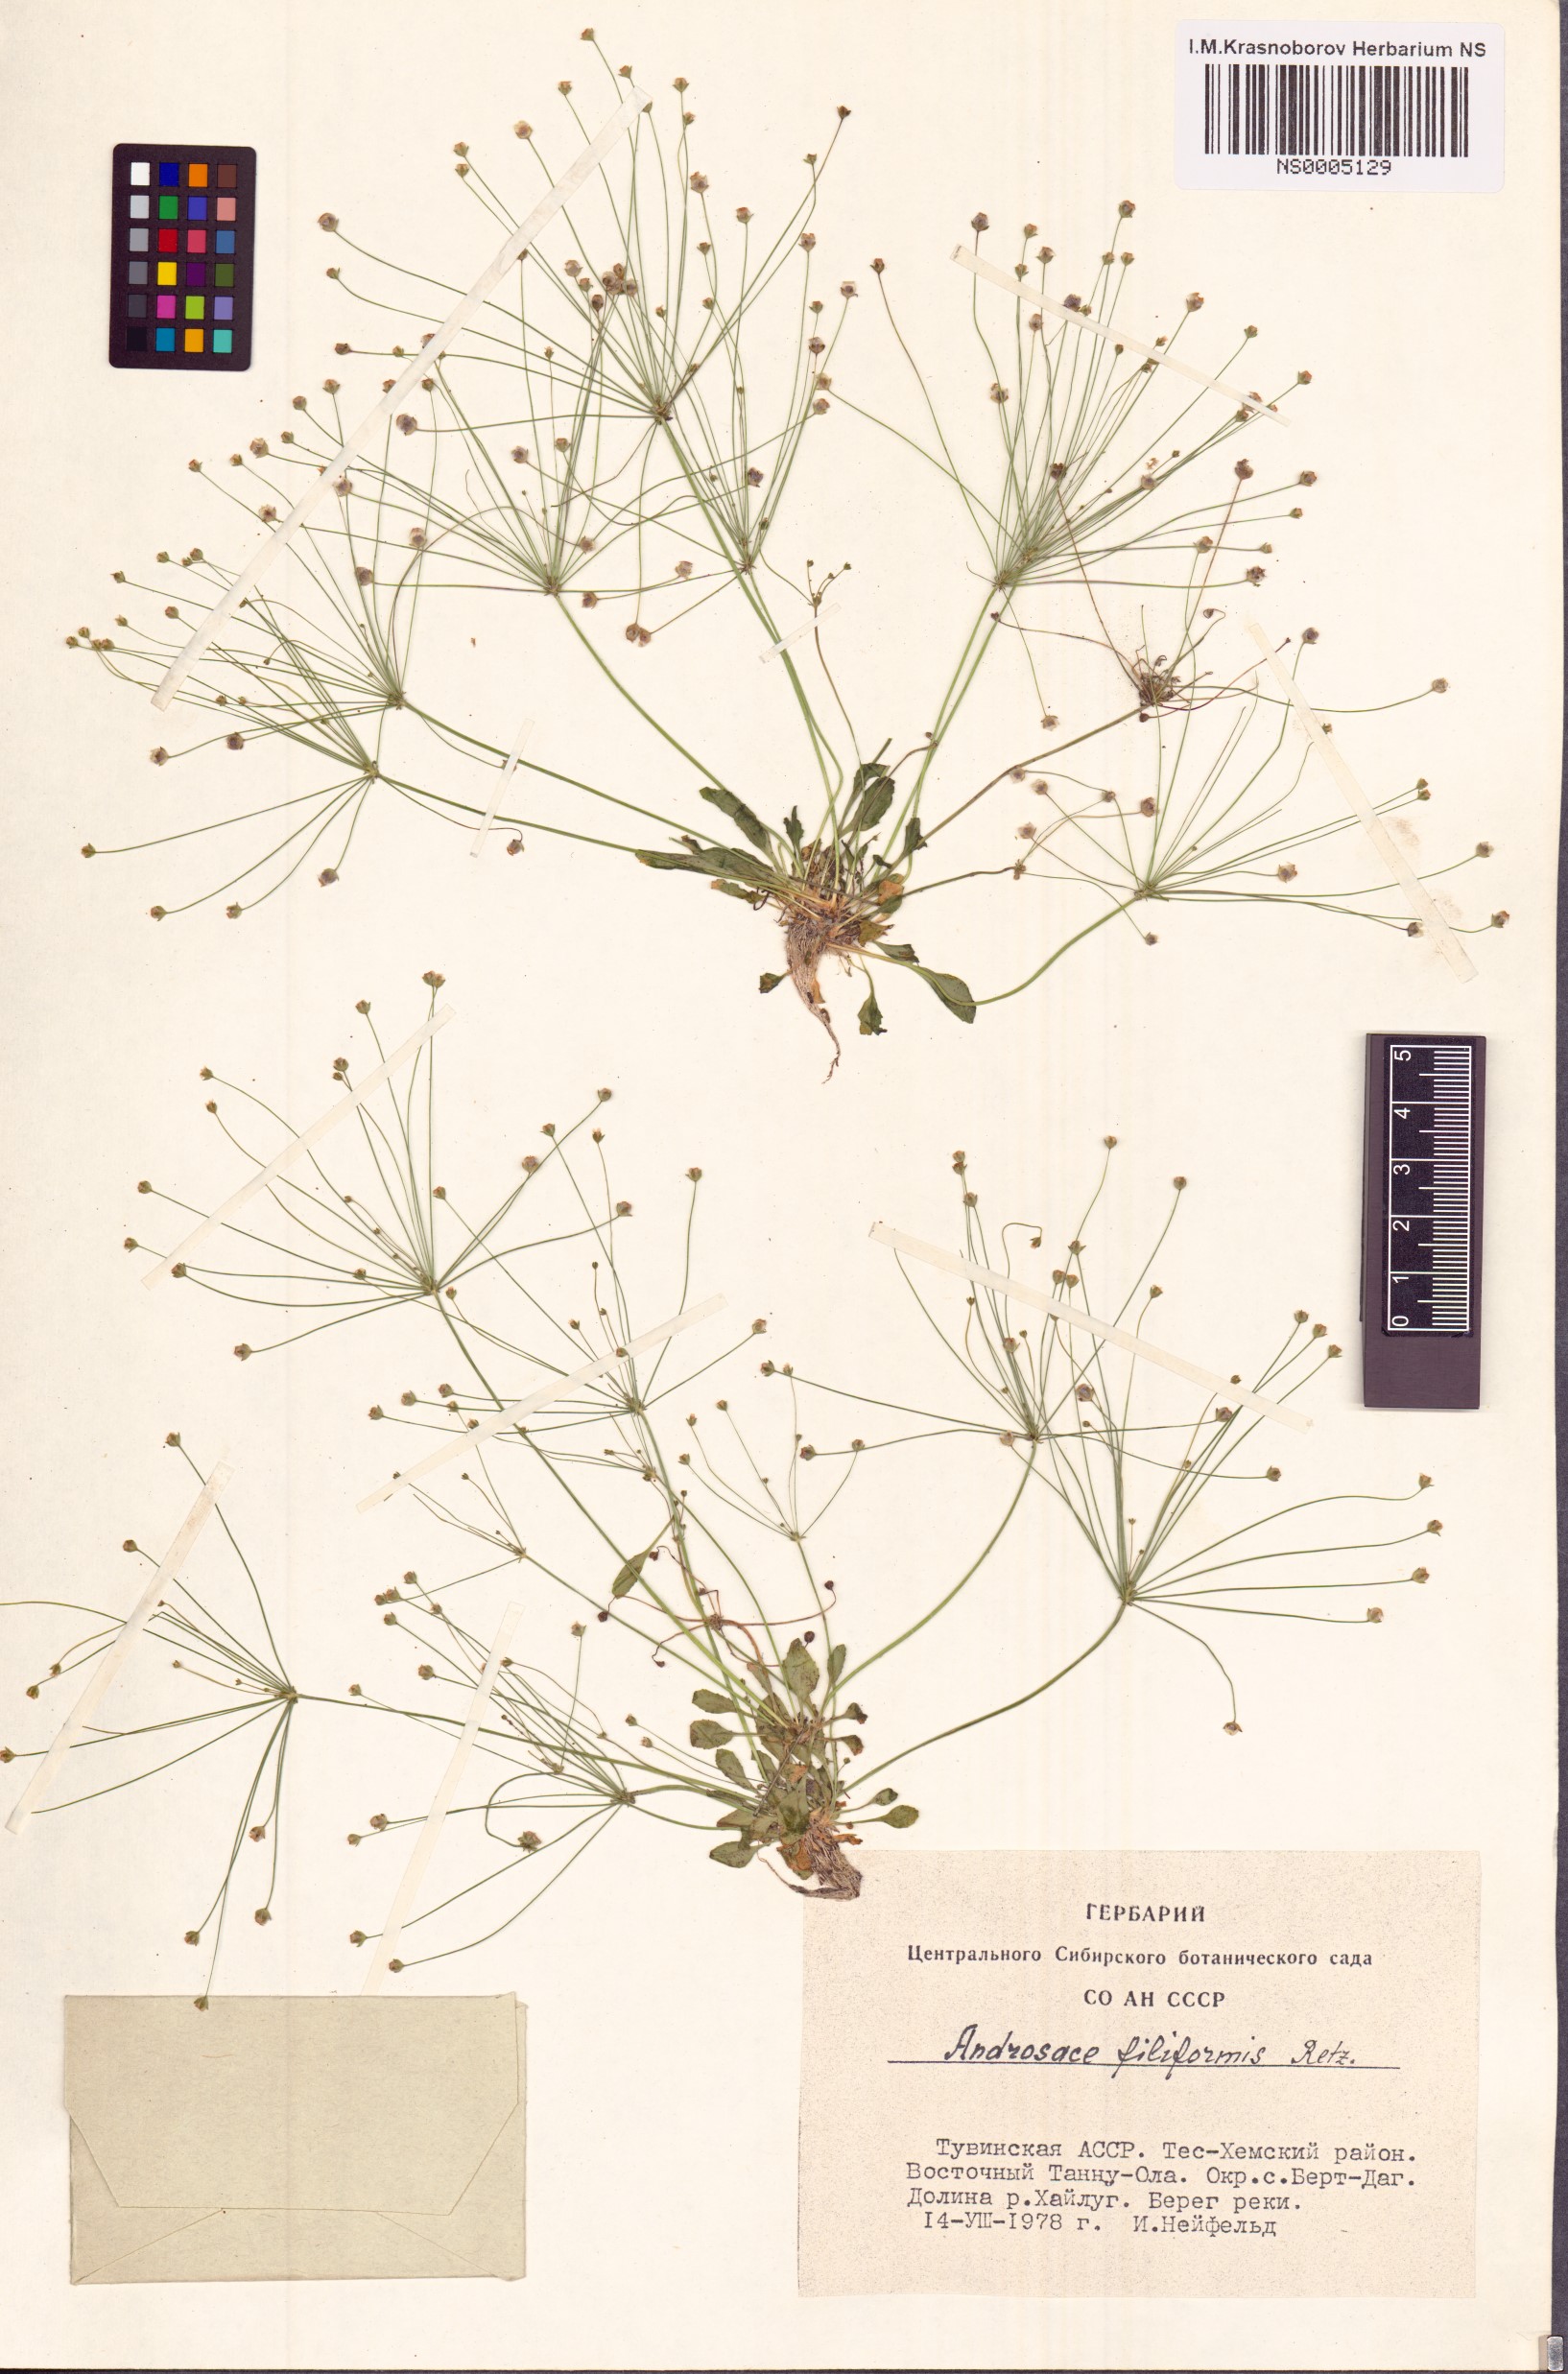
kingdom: Plantae
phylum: Tracheophyta
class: Magnoliopsida
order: Ericales
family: Primulaceae
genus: Androsace
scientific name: Androsace filiformis
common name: Filiform rock jasmine
